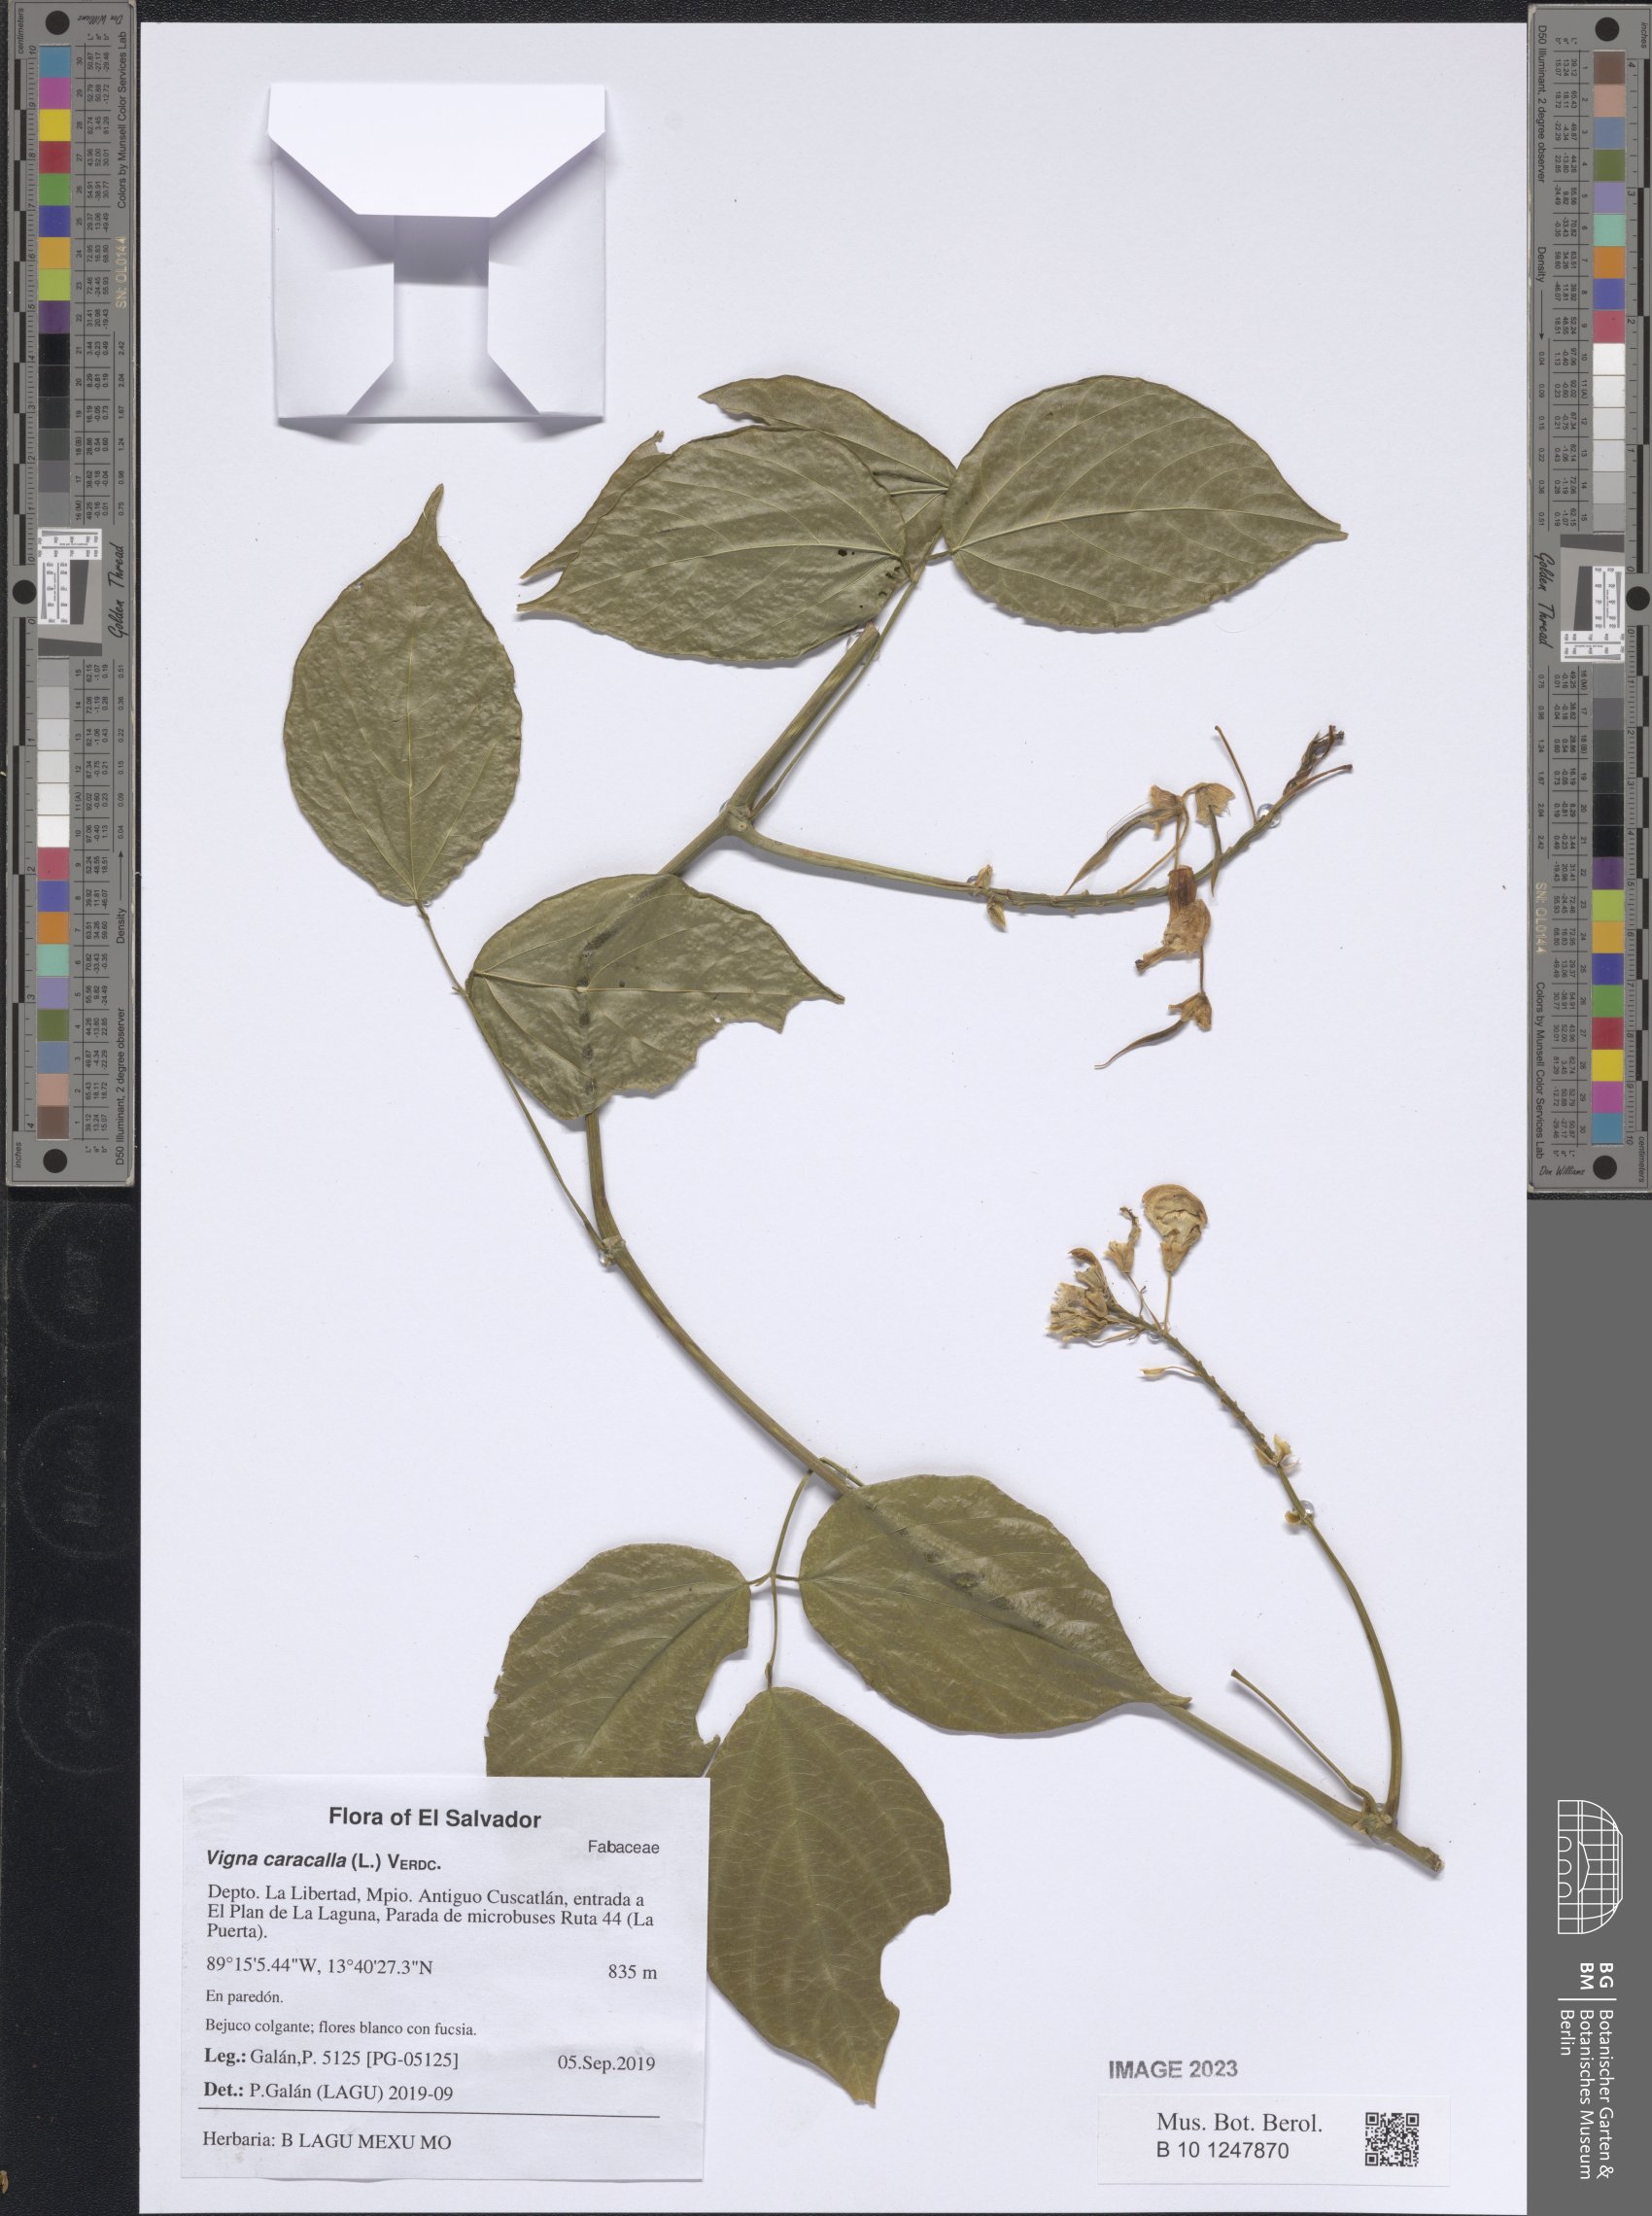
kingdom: Plantae
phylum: Tracheophyta
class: Magnoliopsida
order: Fabales
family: Fabaceae
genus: Cochliasanthus
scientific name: Cochliasanthus caracalla
